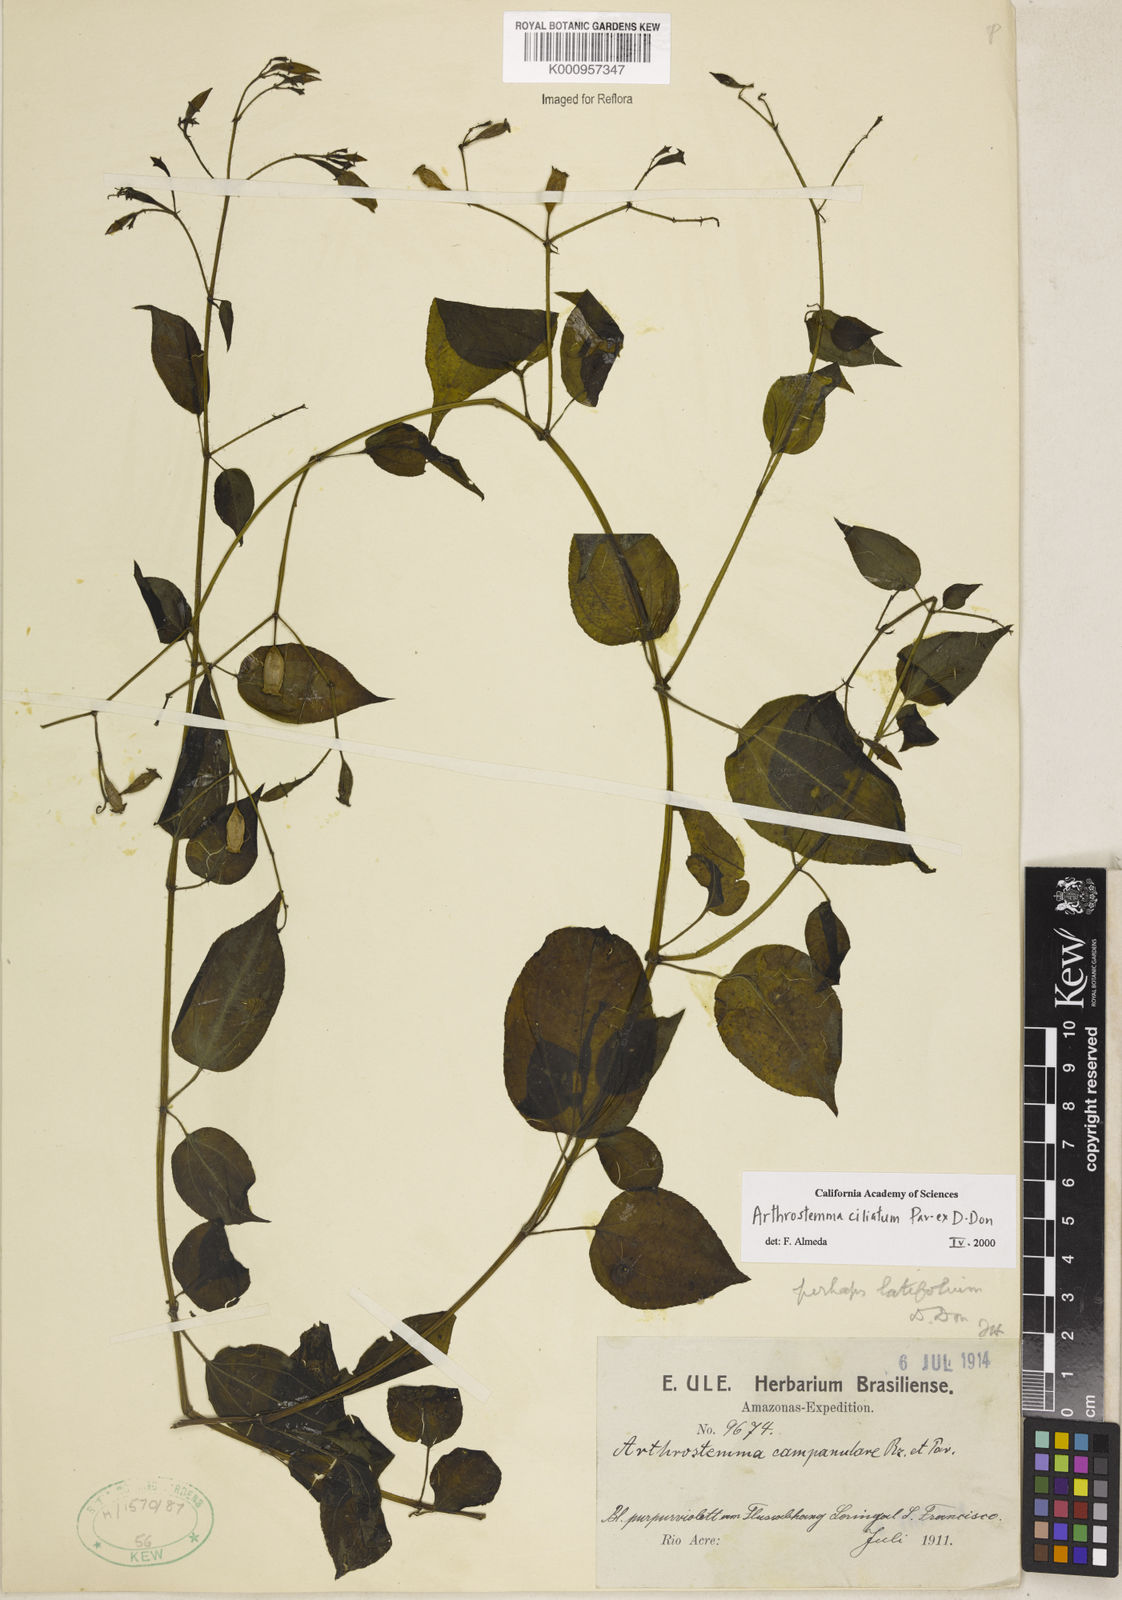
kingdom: Plantae
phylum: Tracheophyta
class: Magnoliopsida
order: Myrtales
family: Melastomataceae
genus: Arthrostemma
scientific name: Arthrostemma ciliatum
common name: Everblooming eavender
